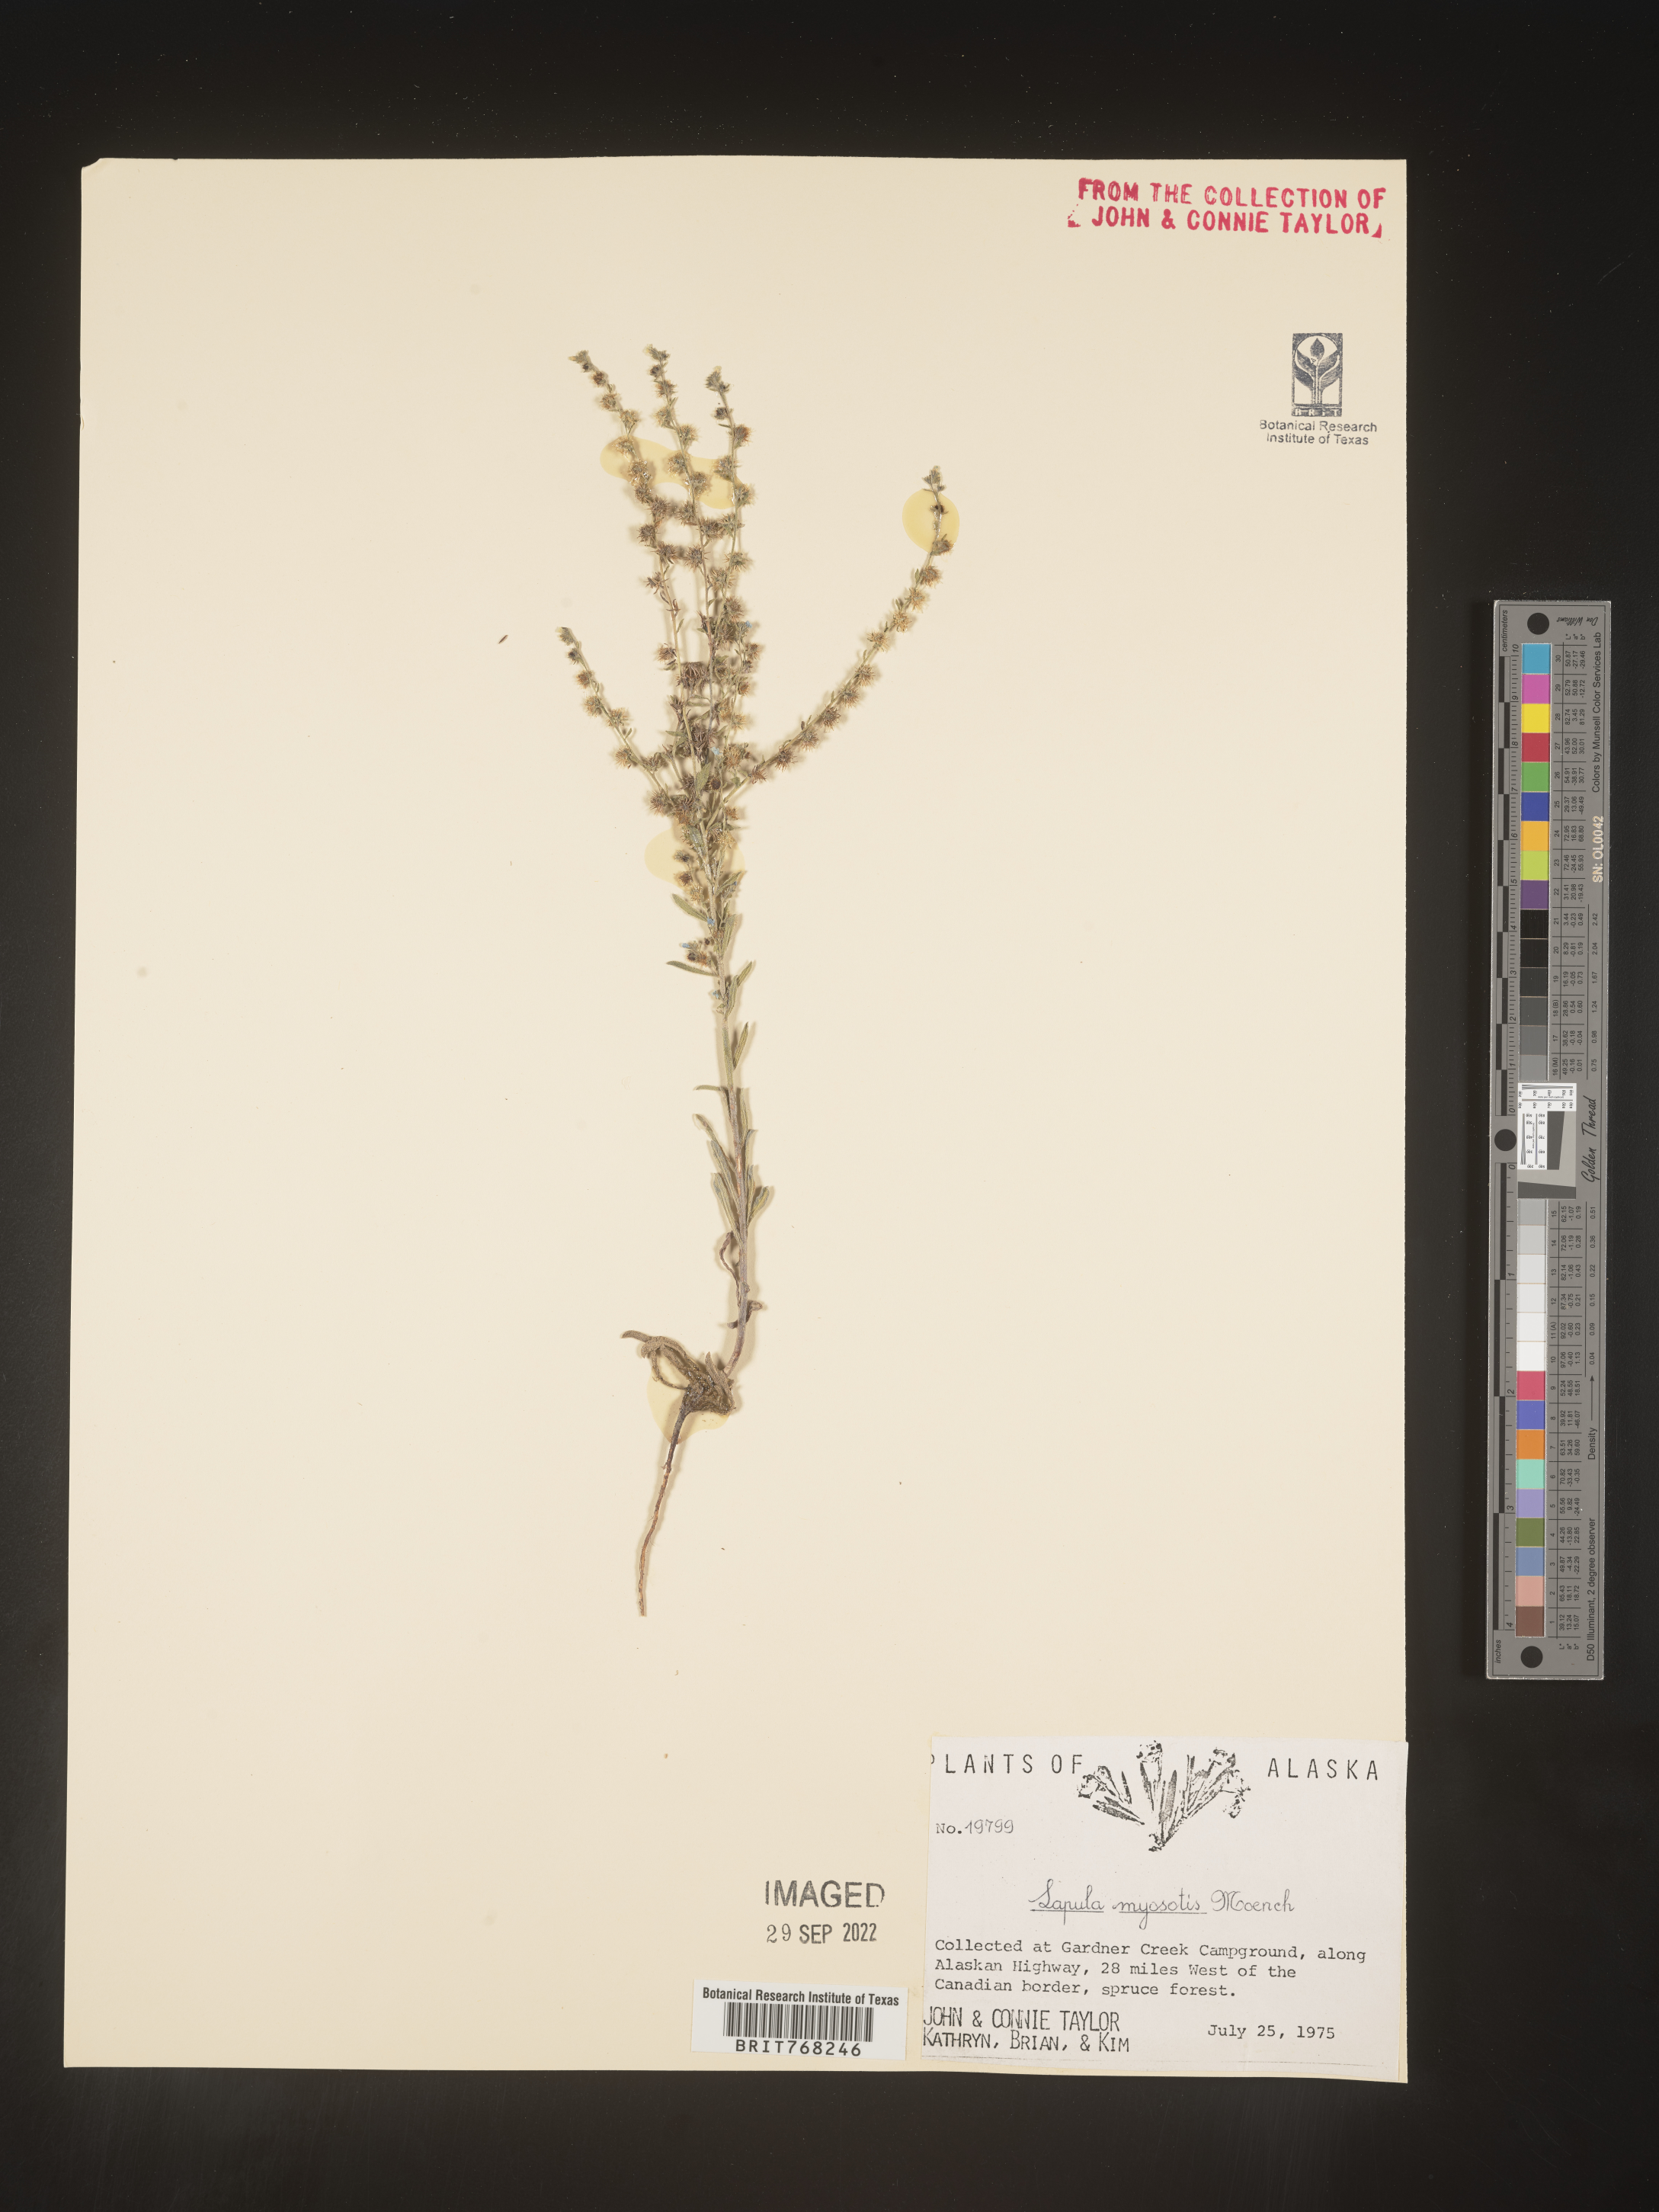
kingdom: Plantae
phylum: Tracheophyta
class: Magnoliopsida
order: Boraginales
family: Boraginaceae
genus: Lappula
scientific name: Lappula
